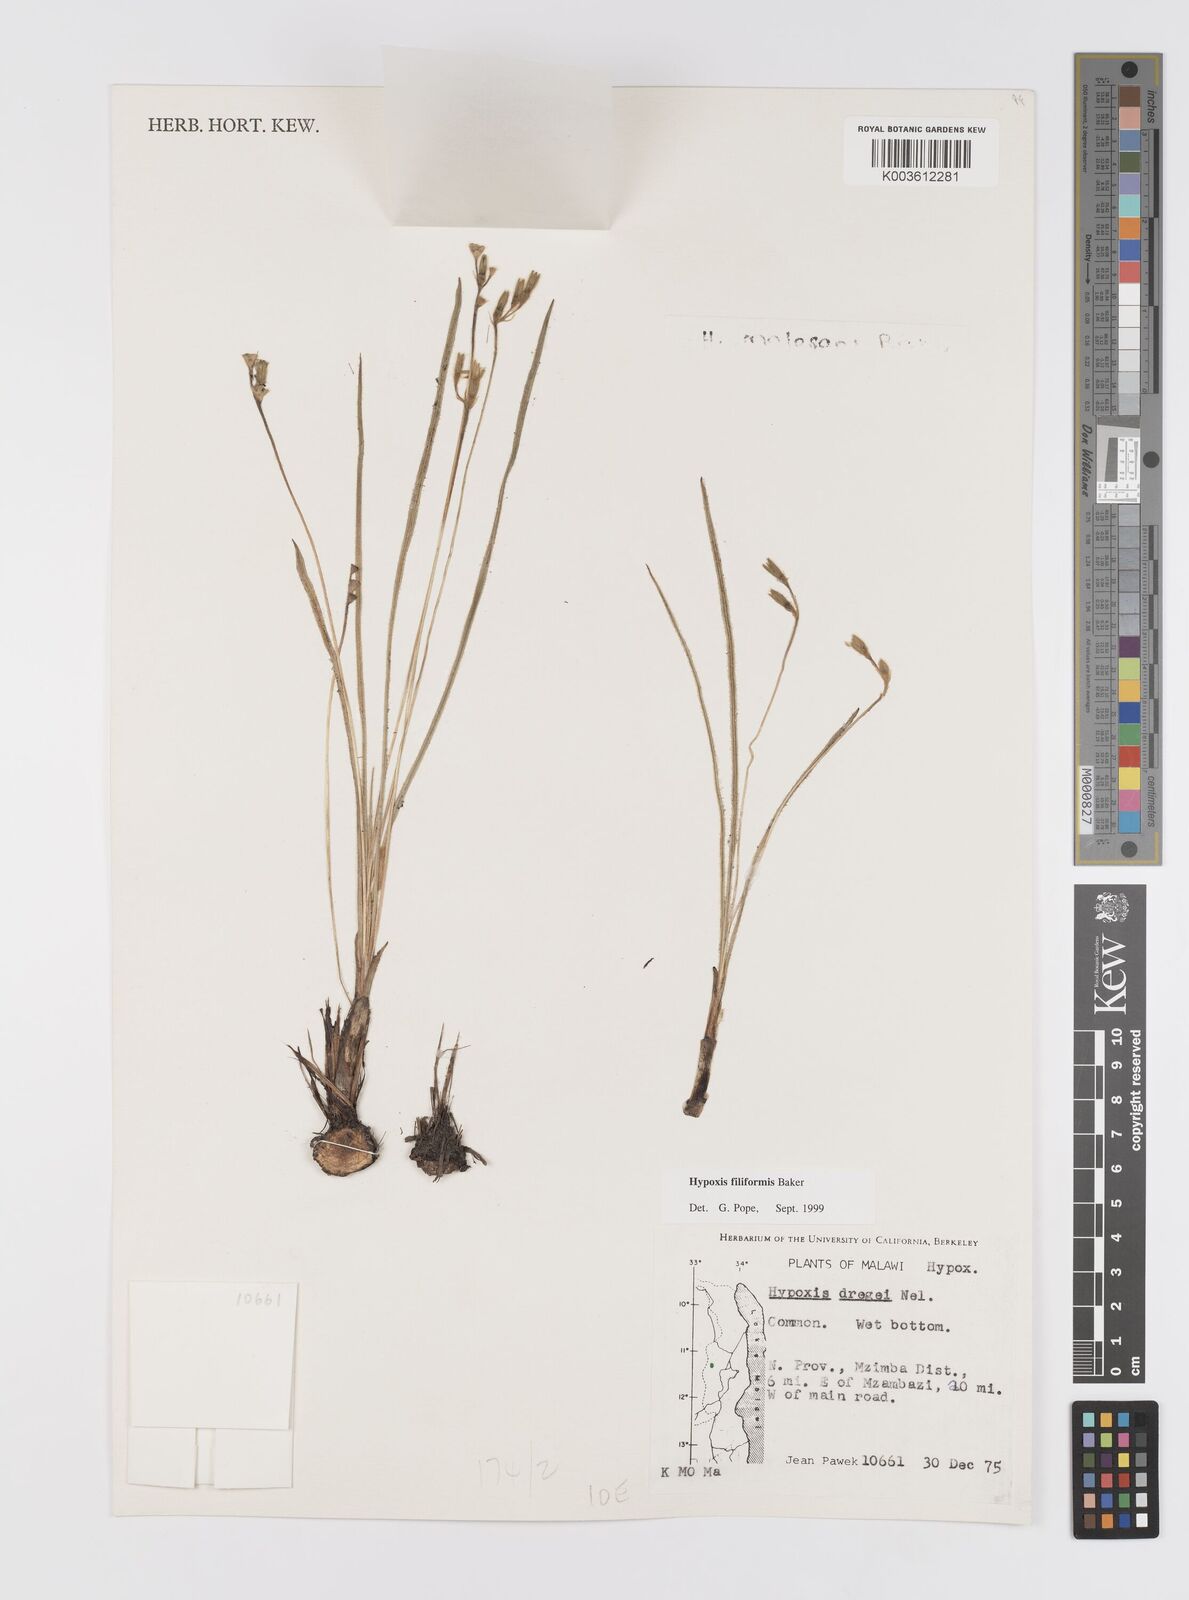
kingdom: Plantae
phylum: Tracheophyta
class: Liliopsida
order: Asparagales
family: Hypoxidaceae
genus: Hypoxis
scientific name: Hypoxis filiformis
